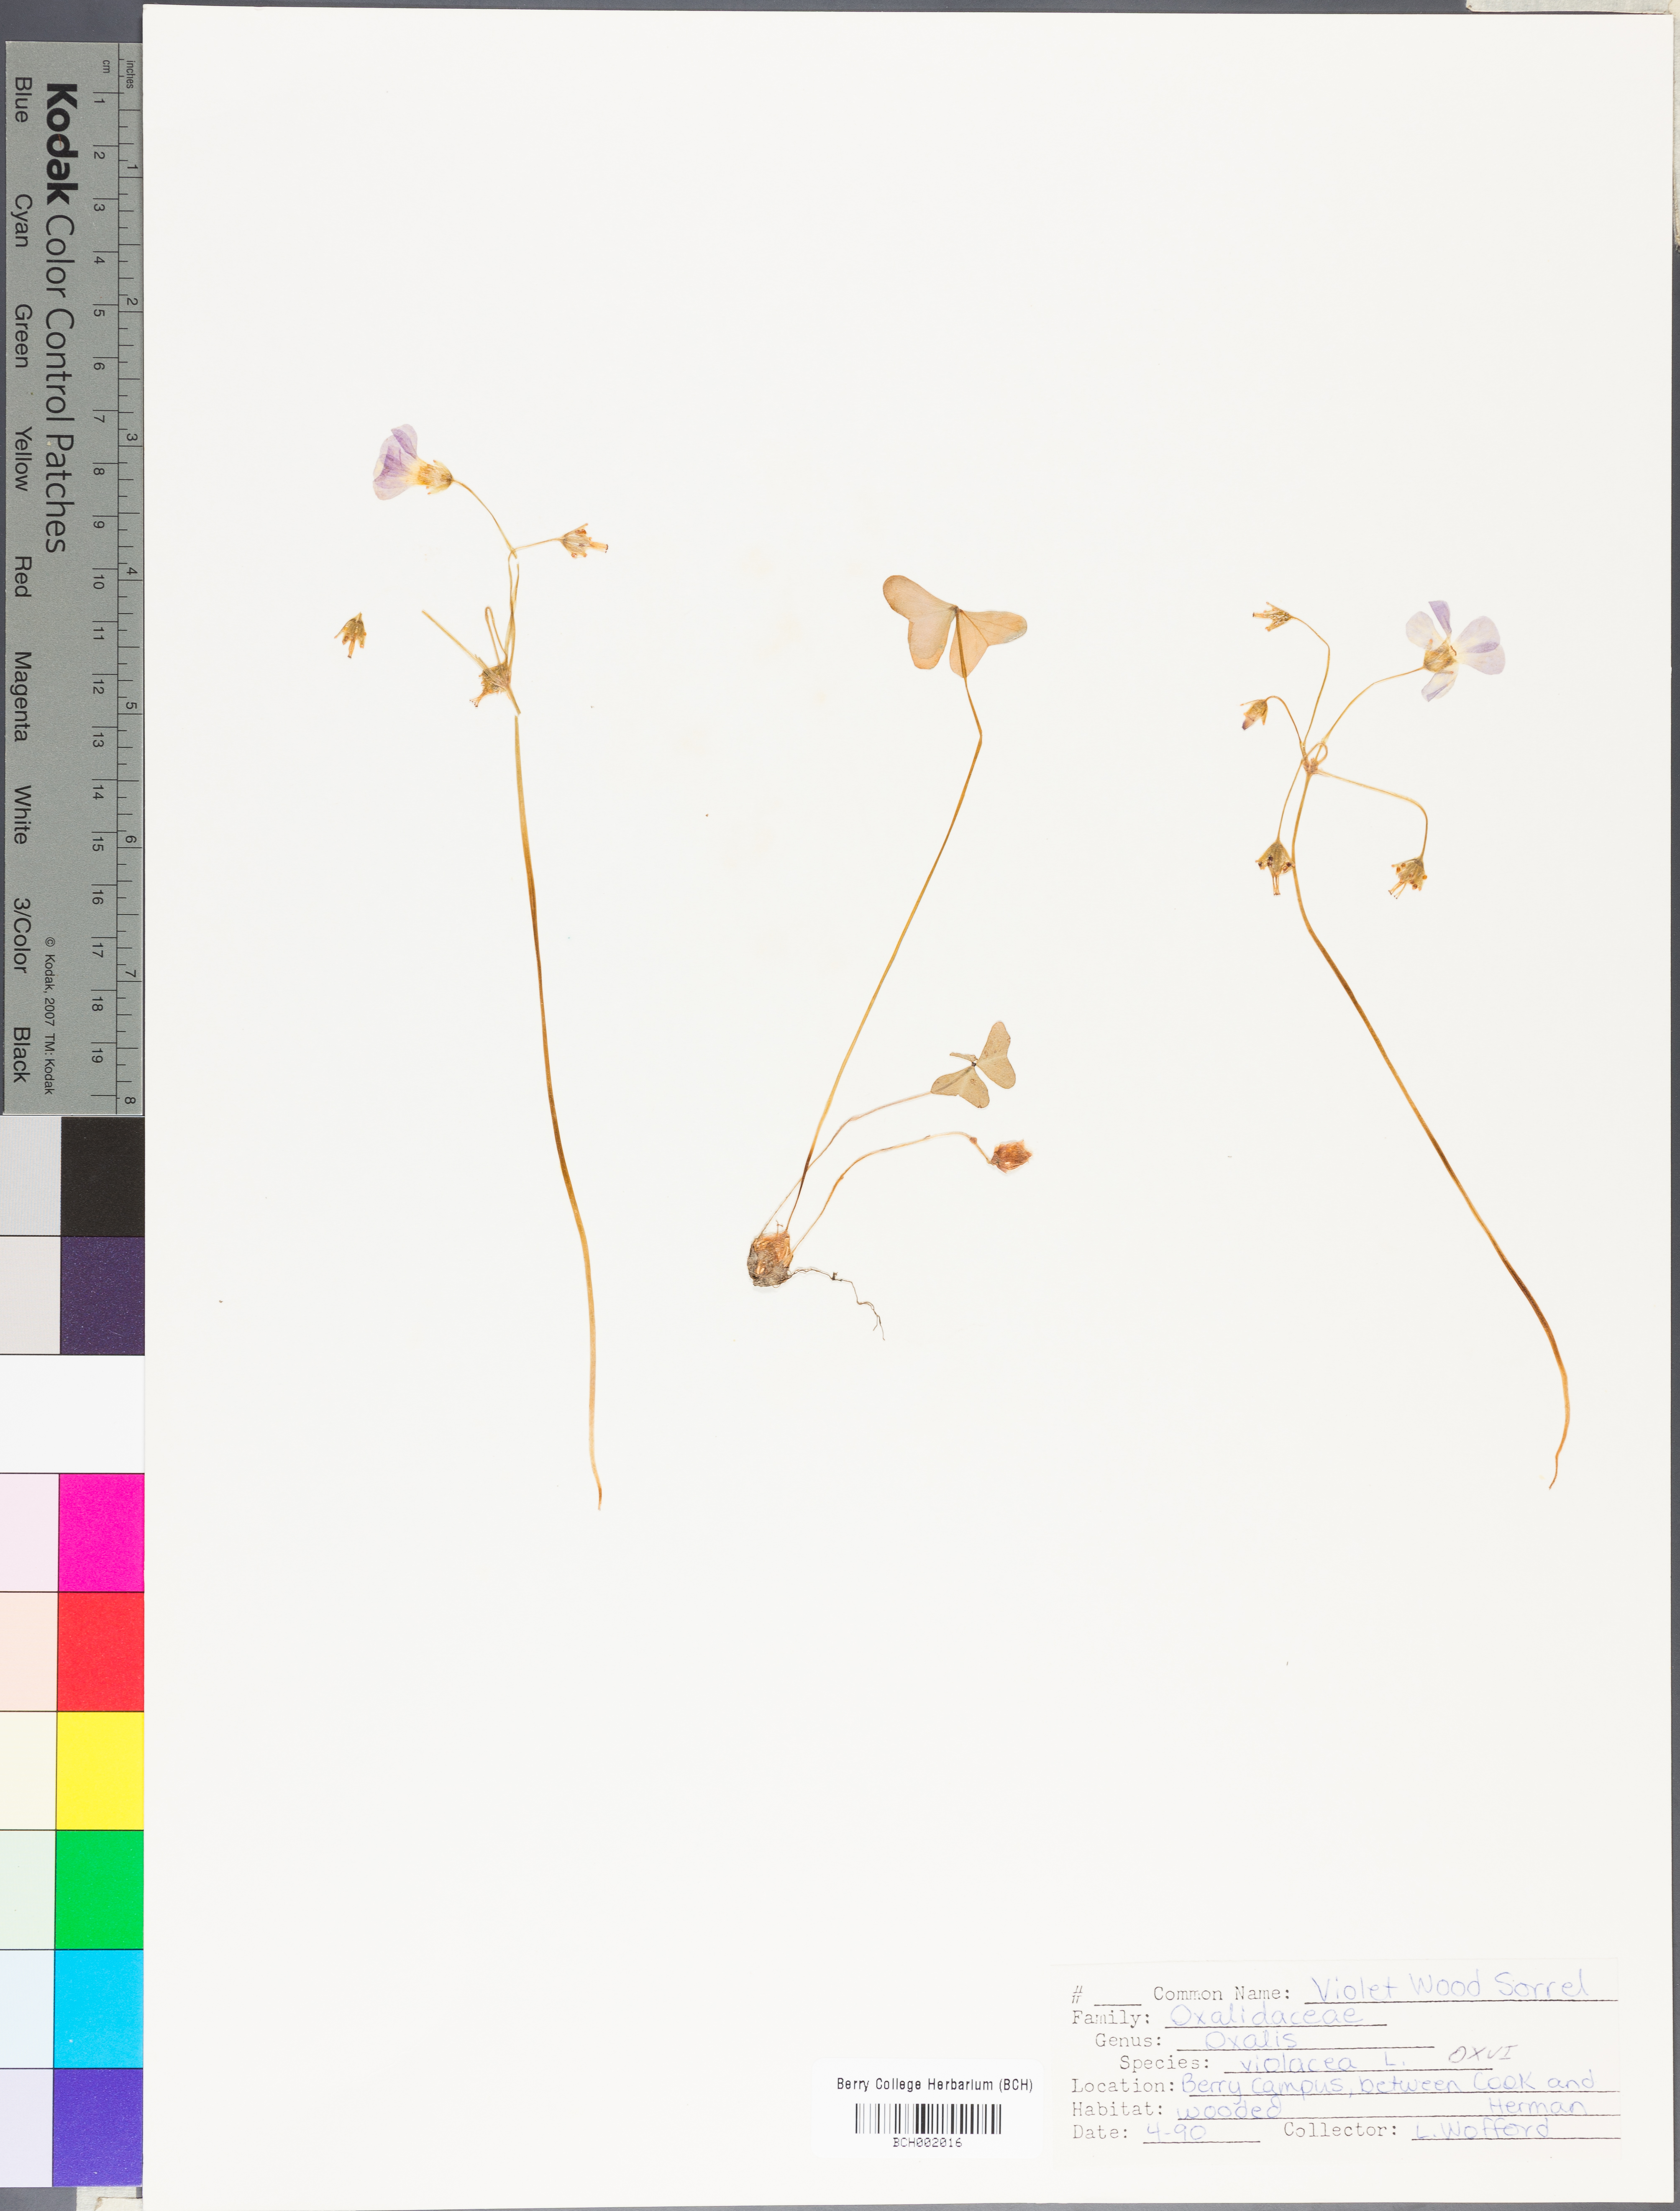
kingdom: Plantae
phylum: Tracheophyta
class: Magnoliopsida
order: Oxalidales
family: Oxalidaceae
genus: Oxalis
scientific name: Oxalis violacea
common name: Violet wood-sorrel
